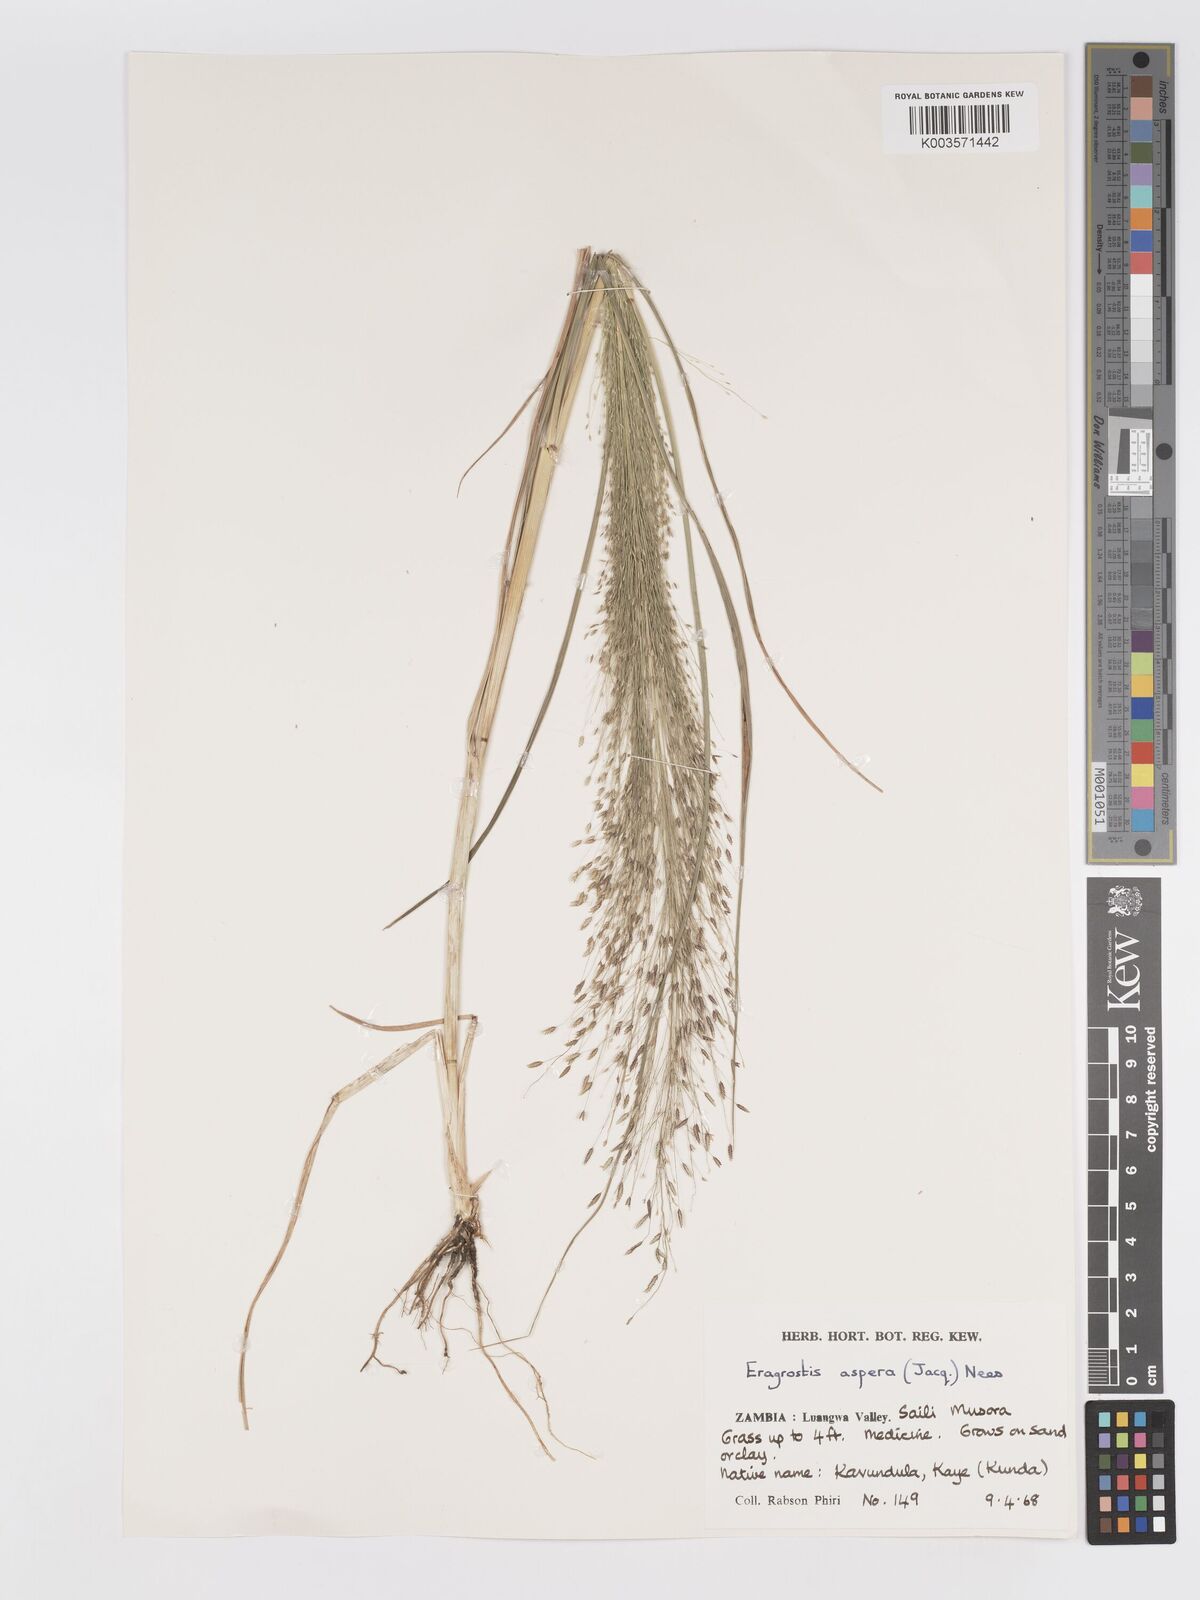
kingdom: Plantae
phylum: Tracheophyta
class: Liliopsida
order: Poales
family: Poaceae
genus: Eragrostis
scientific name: Eragrostis aspera
